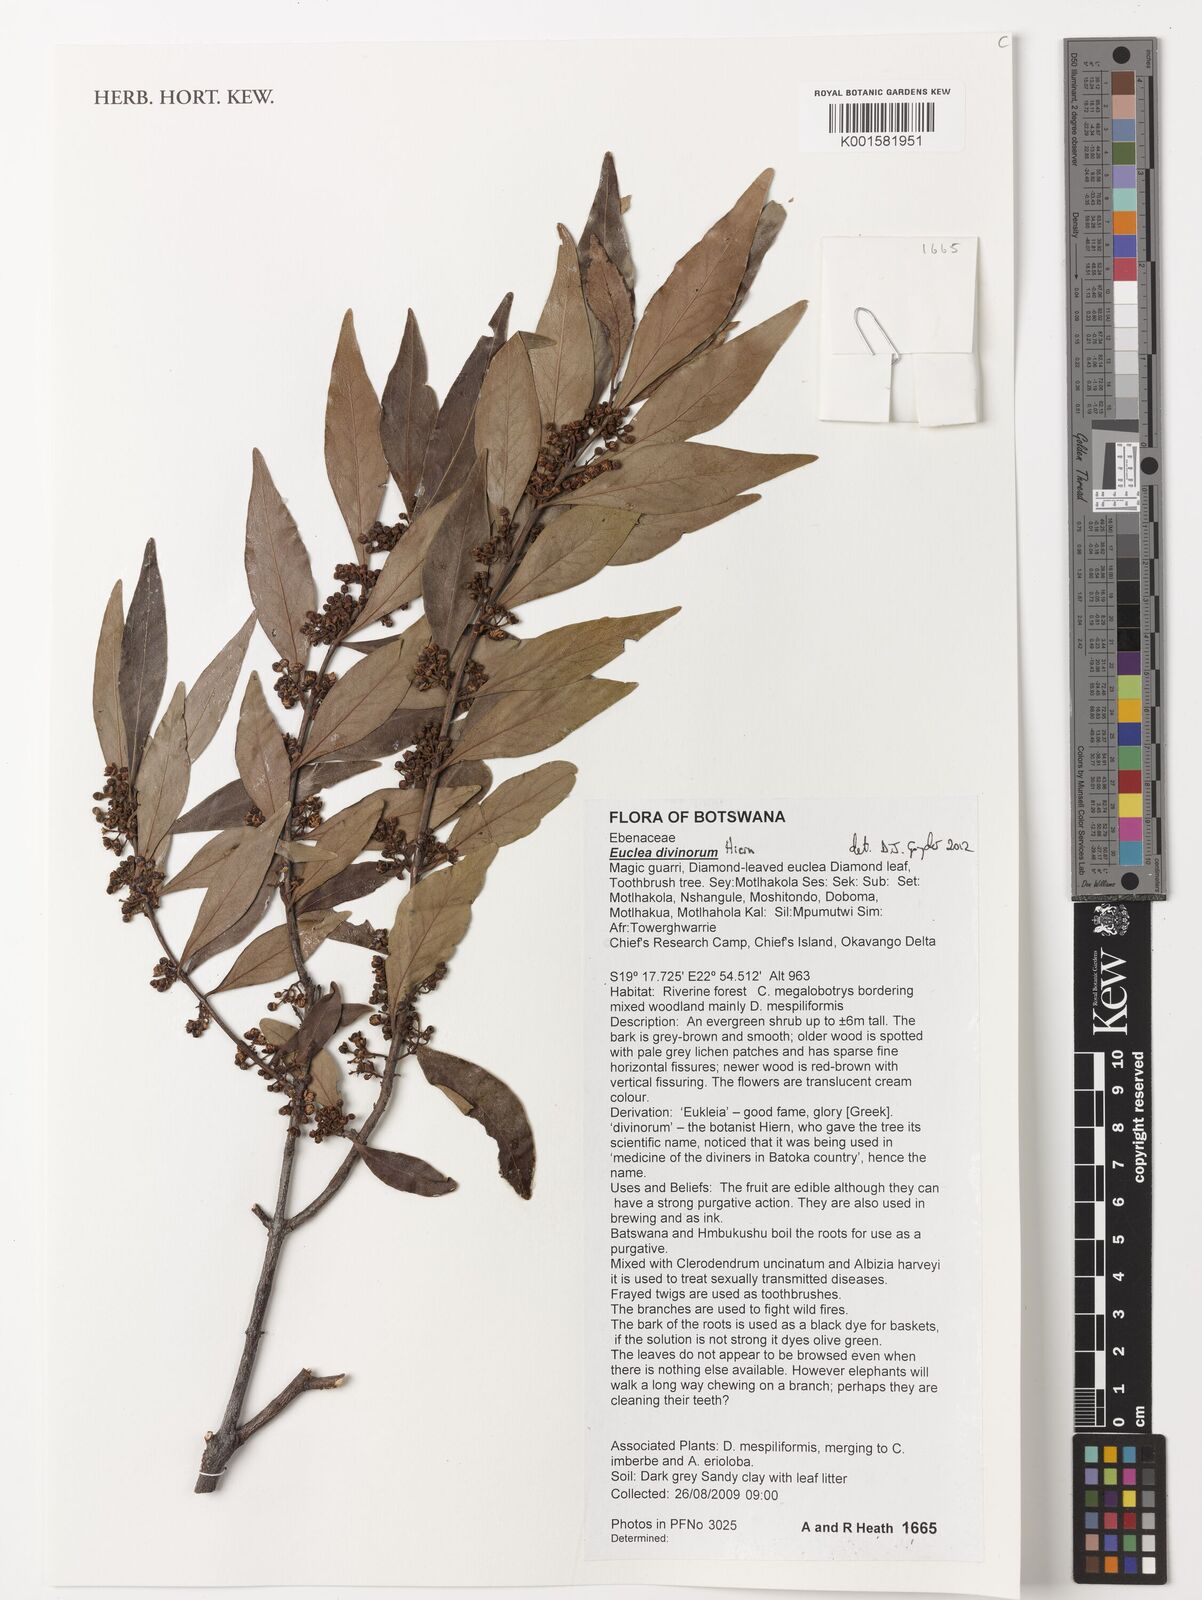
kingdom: Plantae
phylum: Tracheophyta
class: Magnoliopsida
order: Ericales
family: Ebenaceae
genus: Euclea
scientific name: Euclea divinorum
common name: Diamond-leaved euclea
